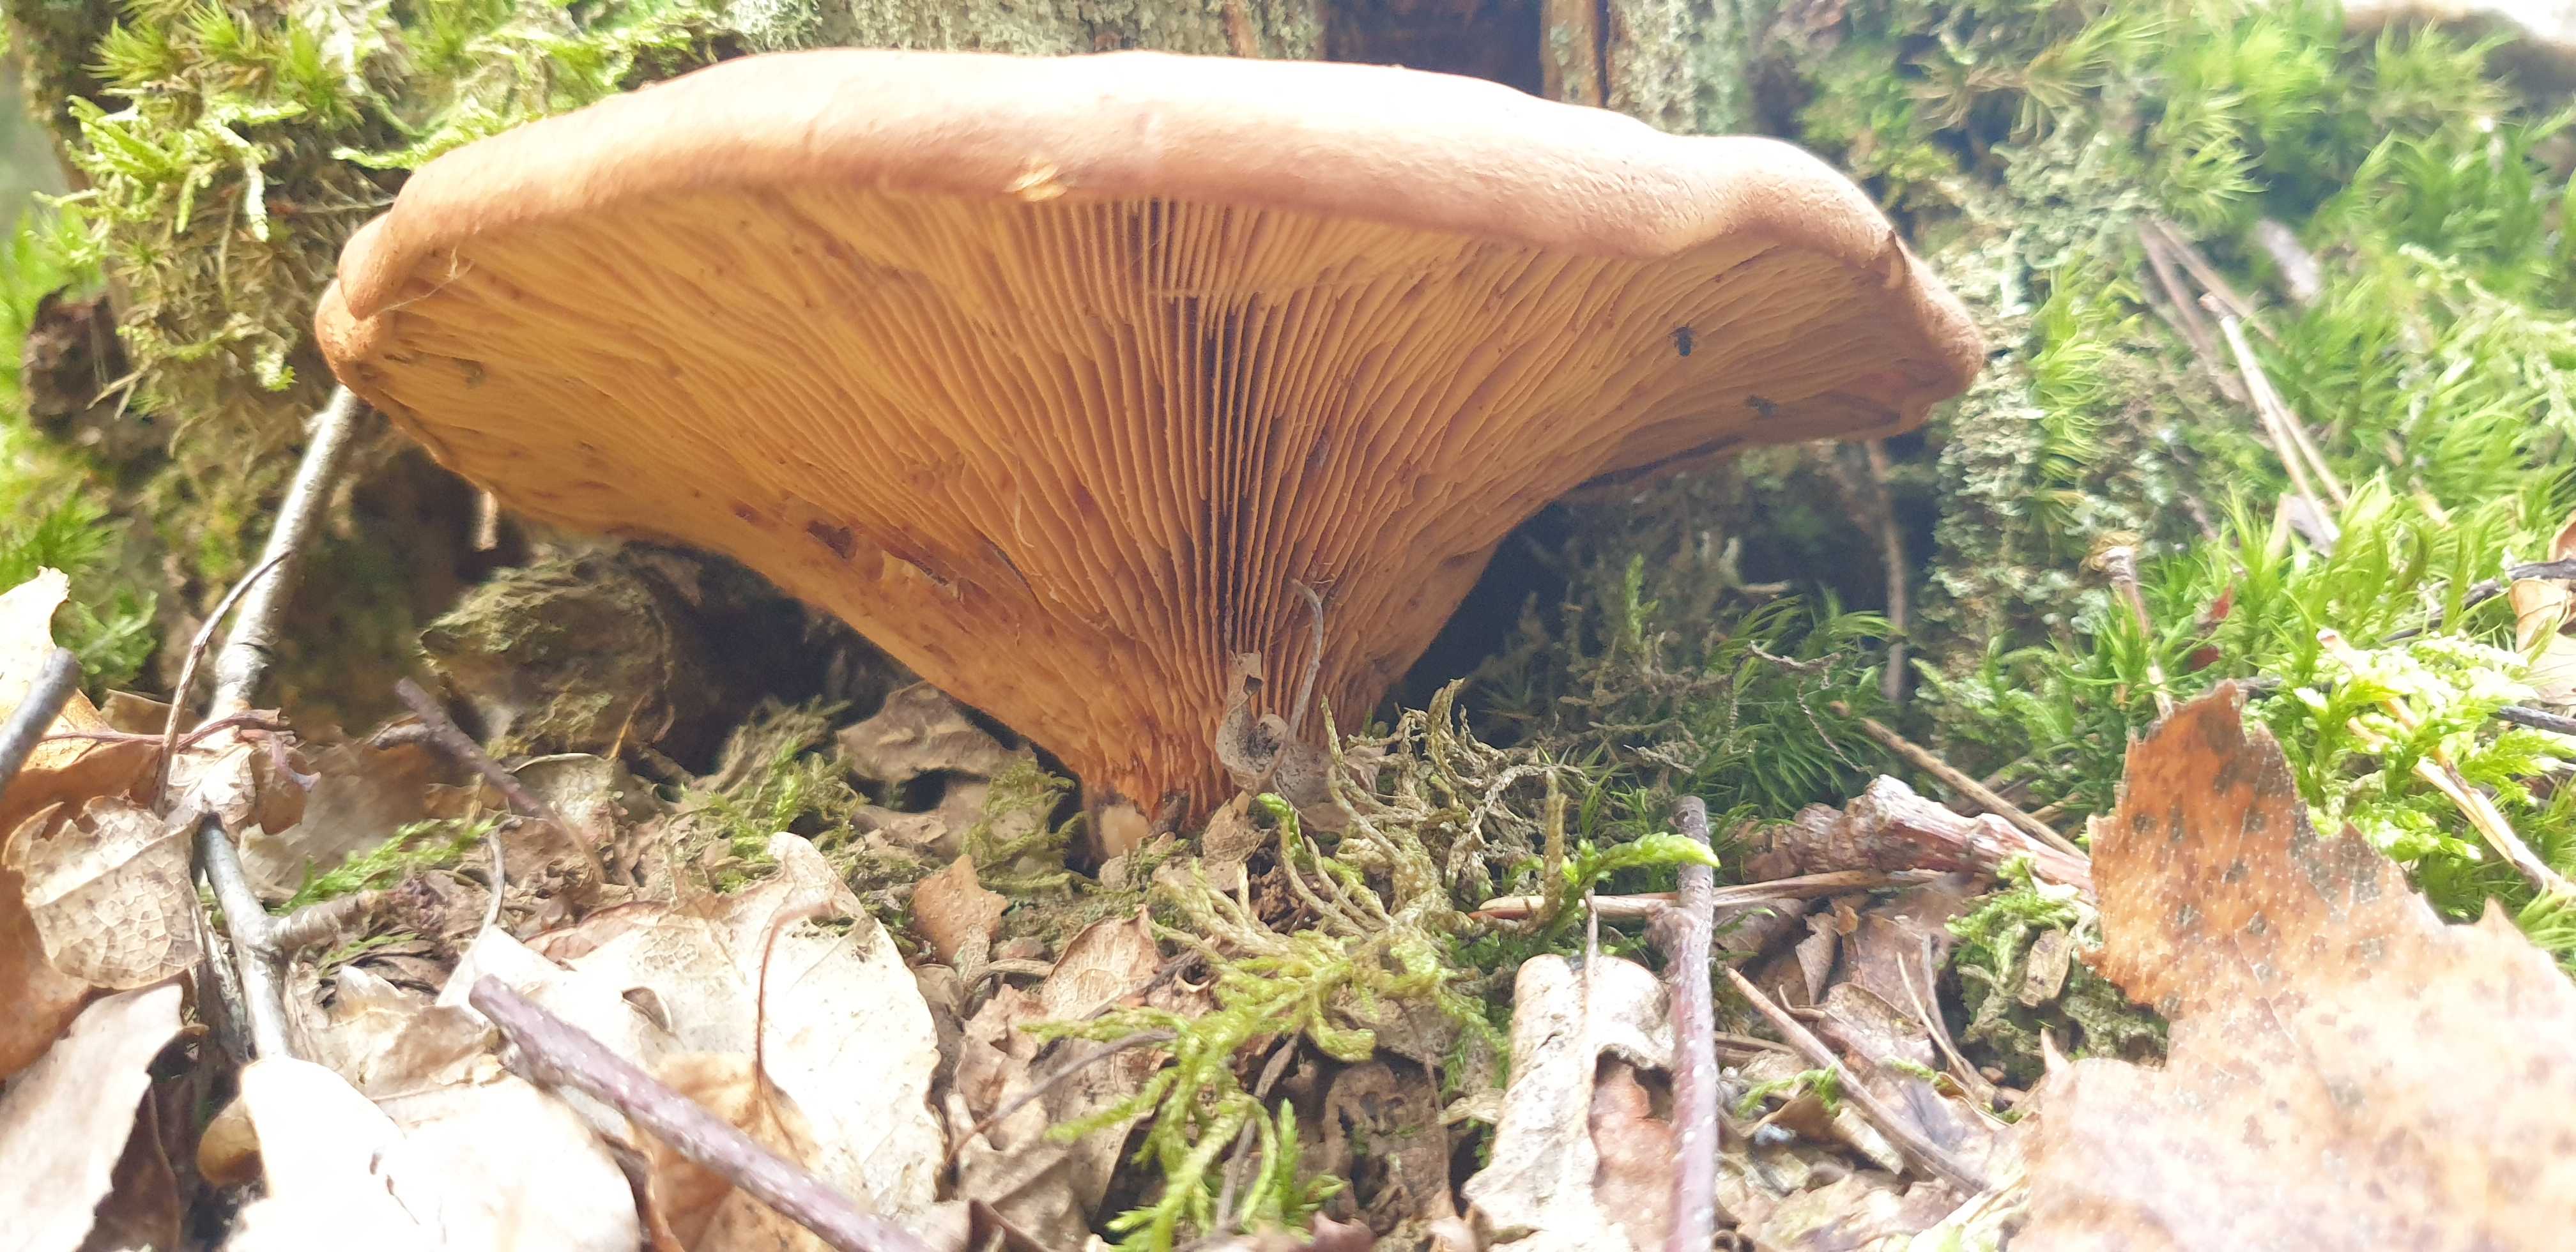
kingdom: Fungi
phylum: Basidiomycota
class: Agaricomycetes
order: Boletales
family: Tapinellaceae
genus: Tapinella
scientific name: Tapinella atrotomentosa
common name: sortfiltet viftesvamp
